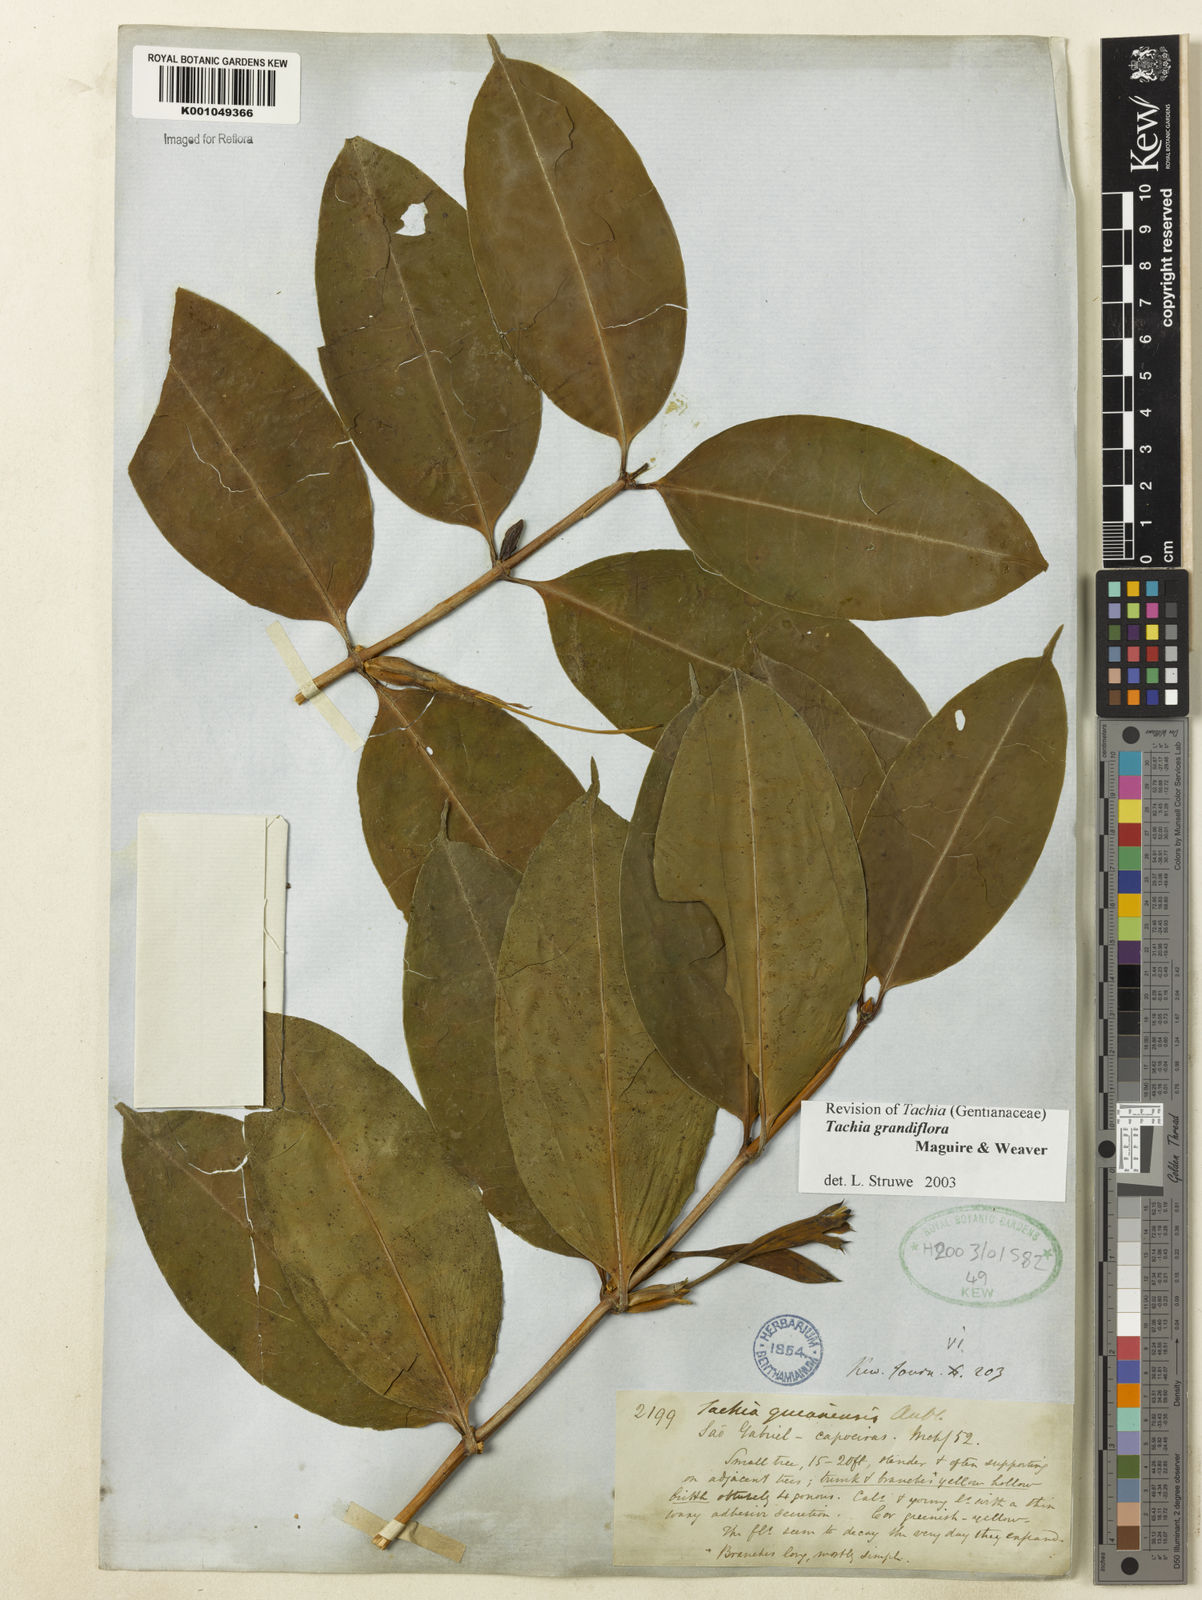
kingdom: Plantae
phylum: Tracheophyta
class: Magnoliopsida
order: Gentianales
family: Gentianaceae
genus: Tachia
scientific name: Tachia grandiflora
